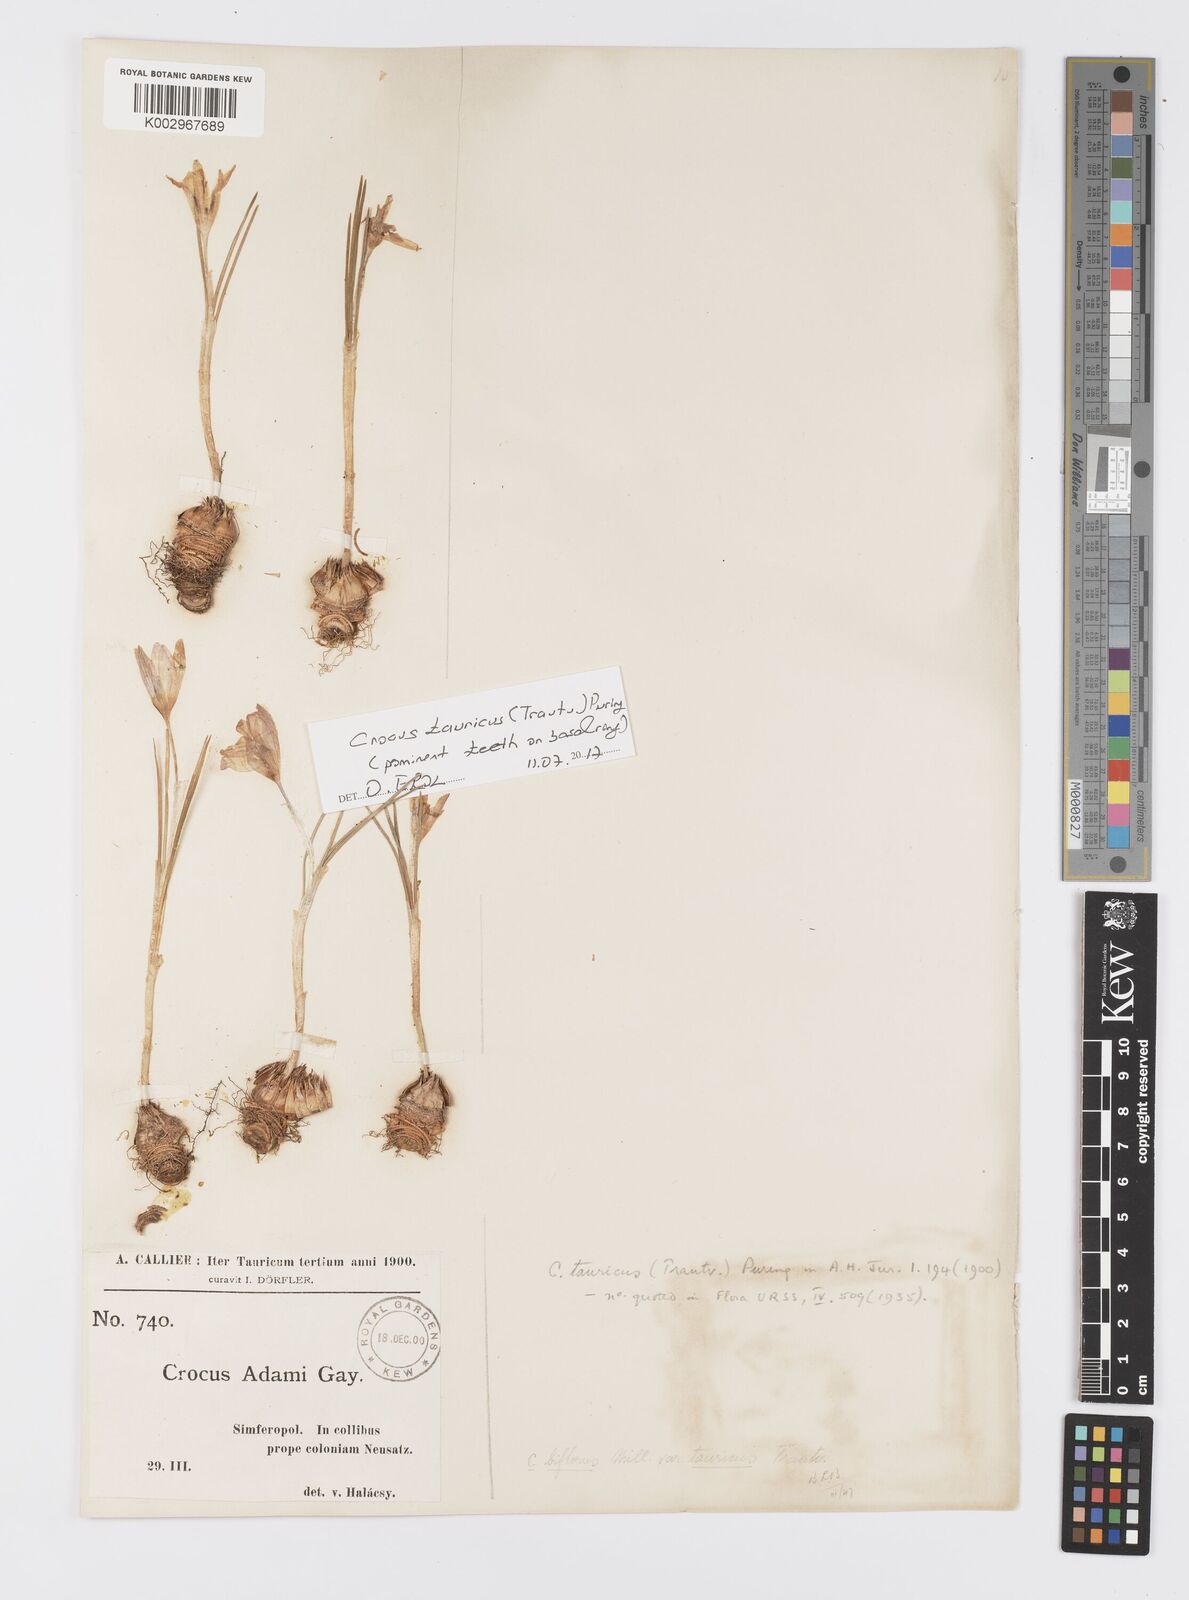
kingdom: Plantae
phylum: Tracheophyta
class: Liliopsida
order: Asparagales
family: Iridaceae
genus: Crocus
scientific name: Crocus biflorus
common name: Silvery crocus
